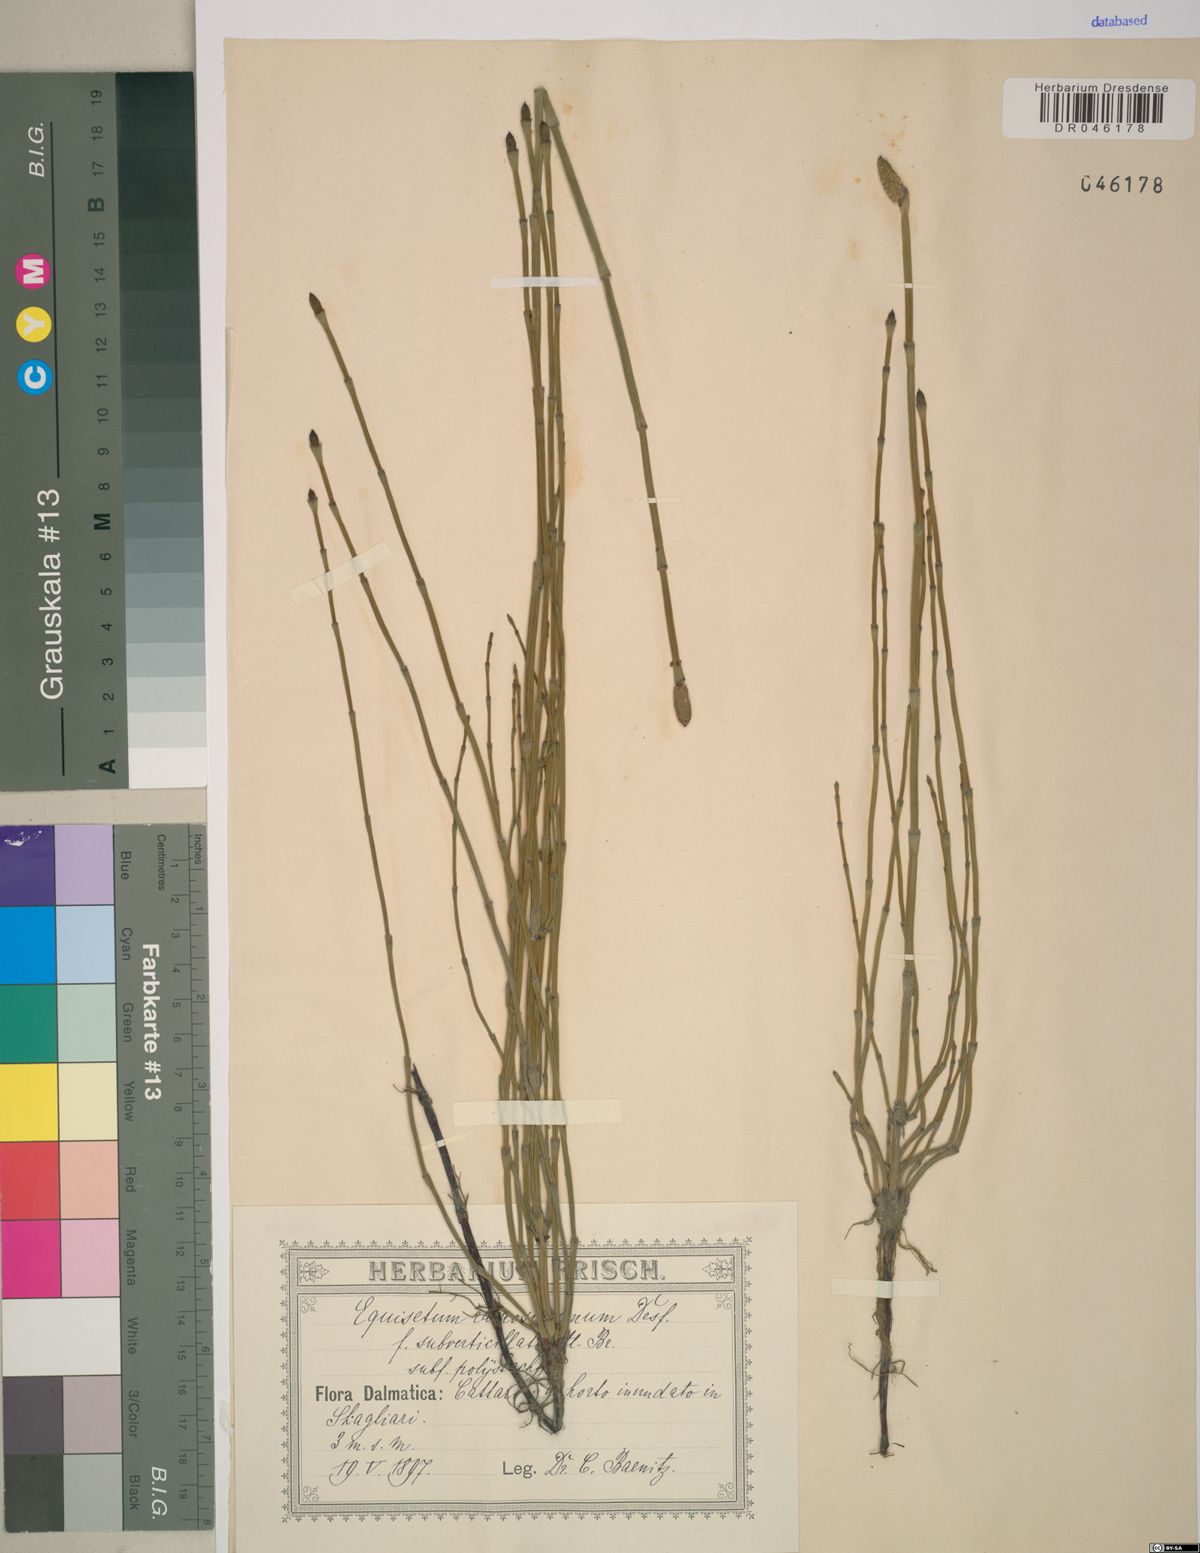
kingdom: Plantae
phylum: Tracheophyta
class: Polypodiopsida
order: Equisetales
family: Equisetaceae
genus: Equisetum
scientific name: Equisetum ramosissimum
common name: Branched horsetail
